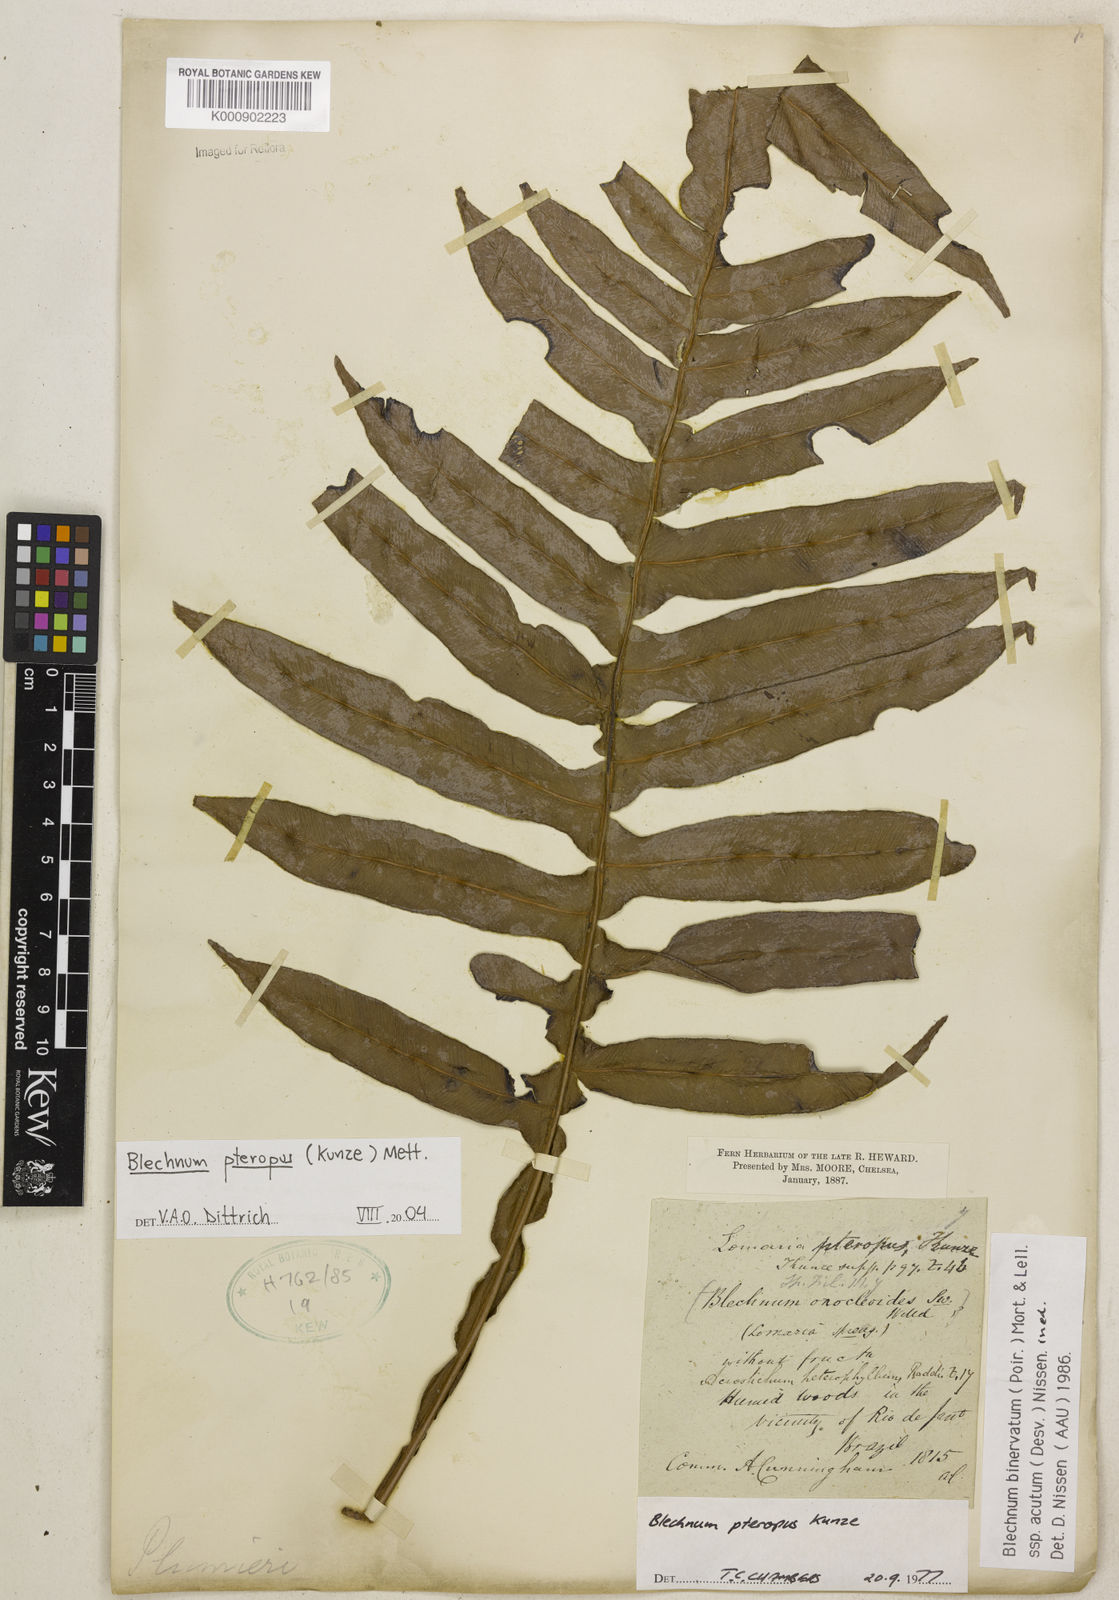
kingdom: Plantae
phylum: Tracheophyta
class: Polypodiopsida
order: Polypodiales
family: Blechnaceae
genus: Lomaridium
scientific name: Lomaridium pteropus
